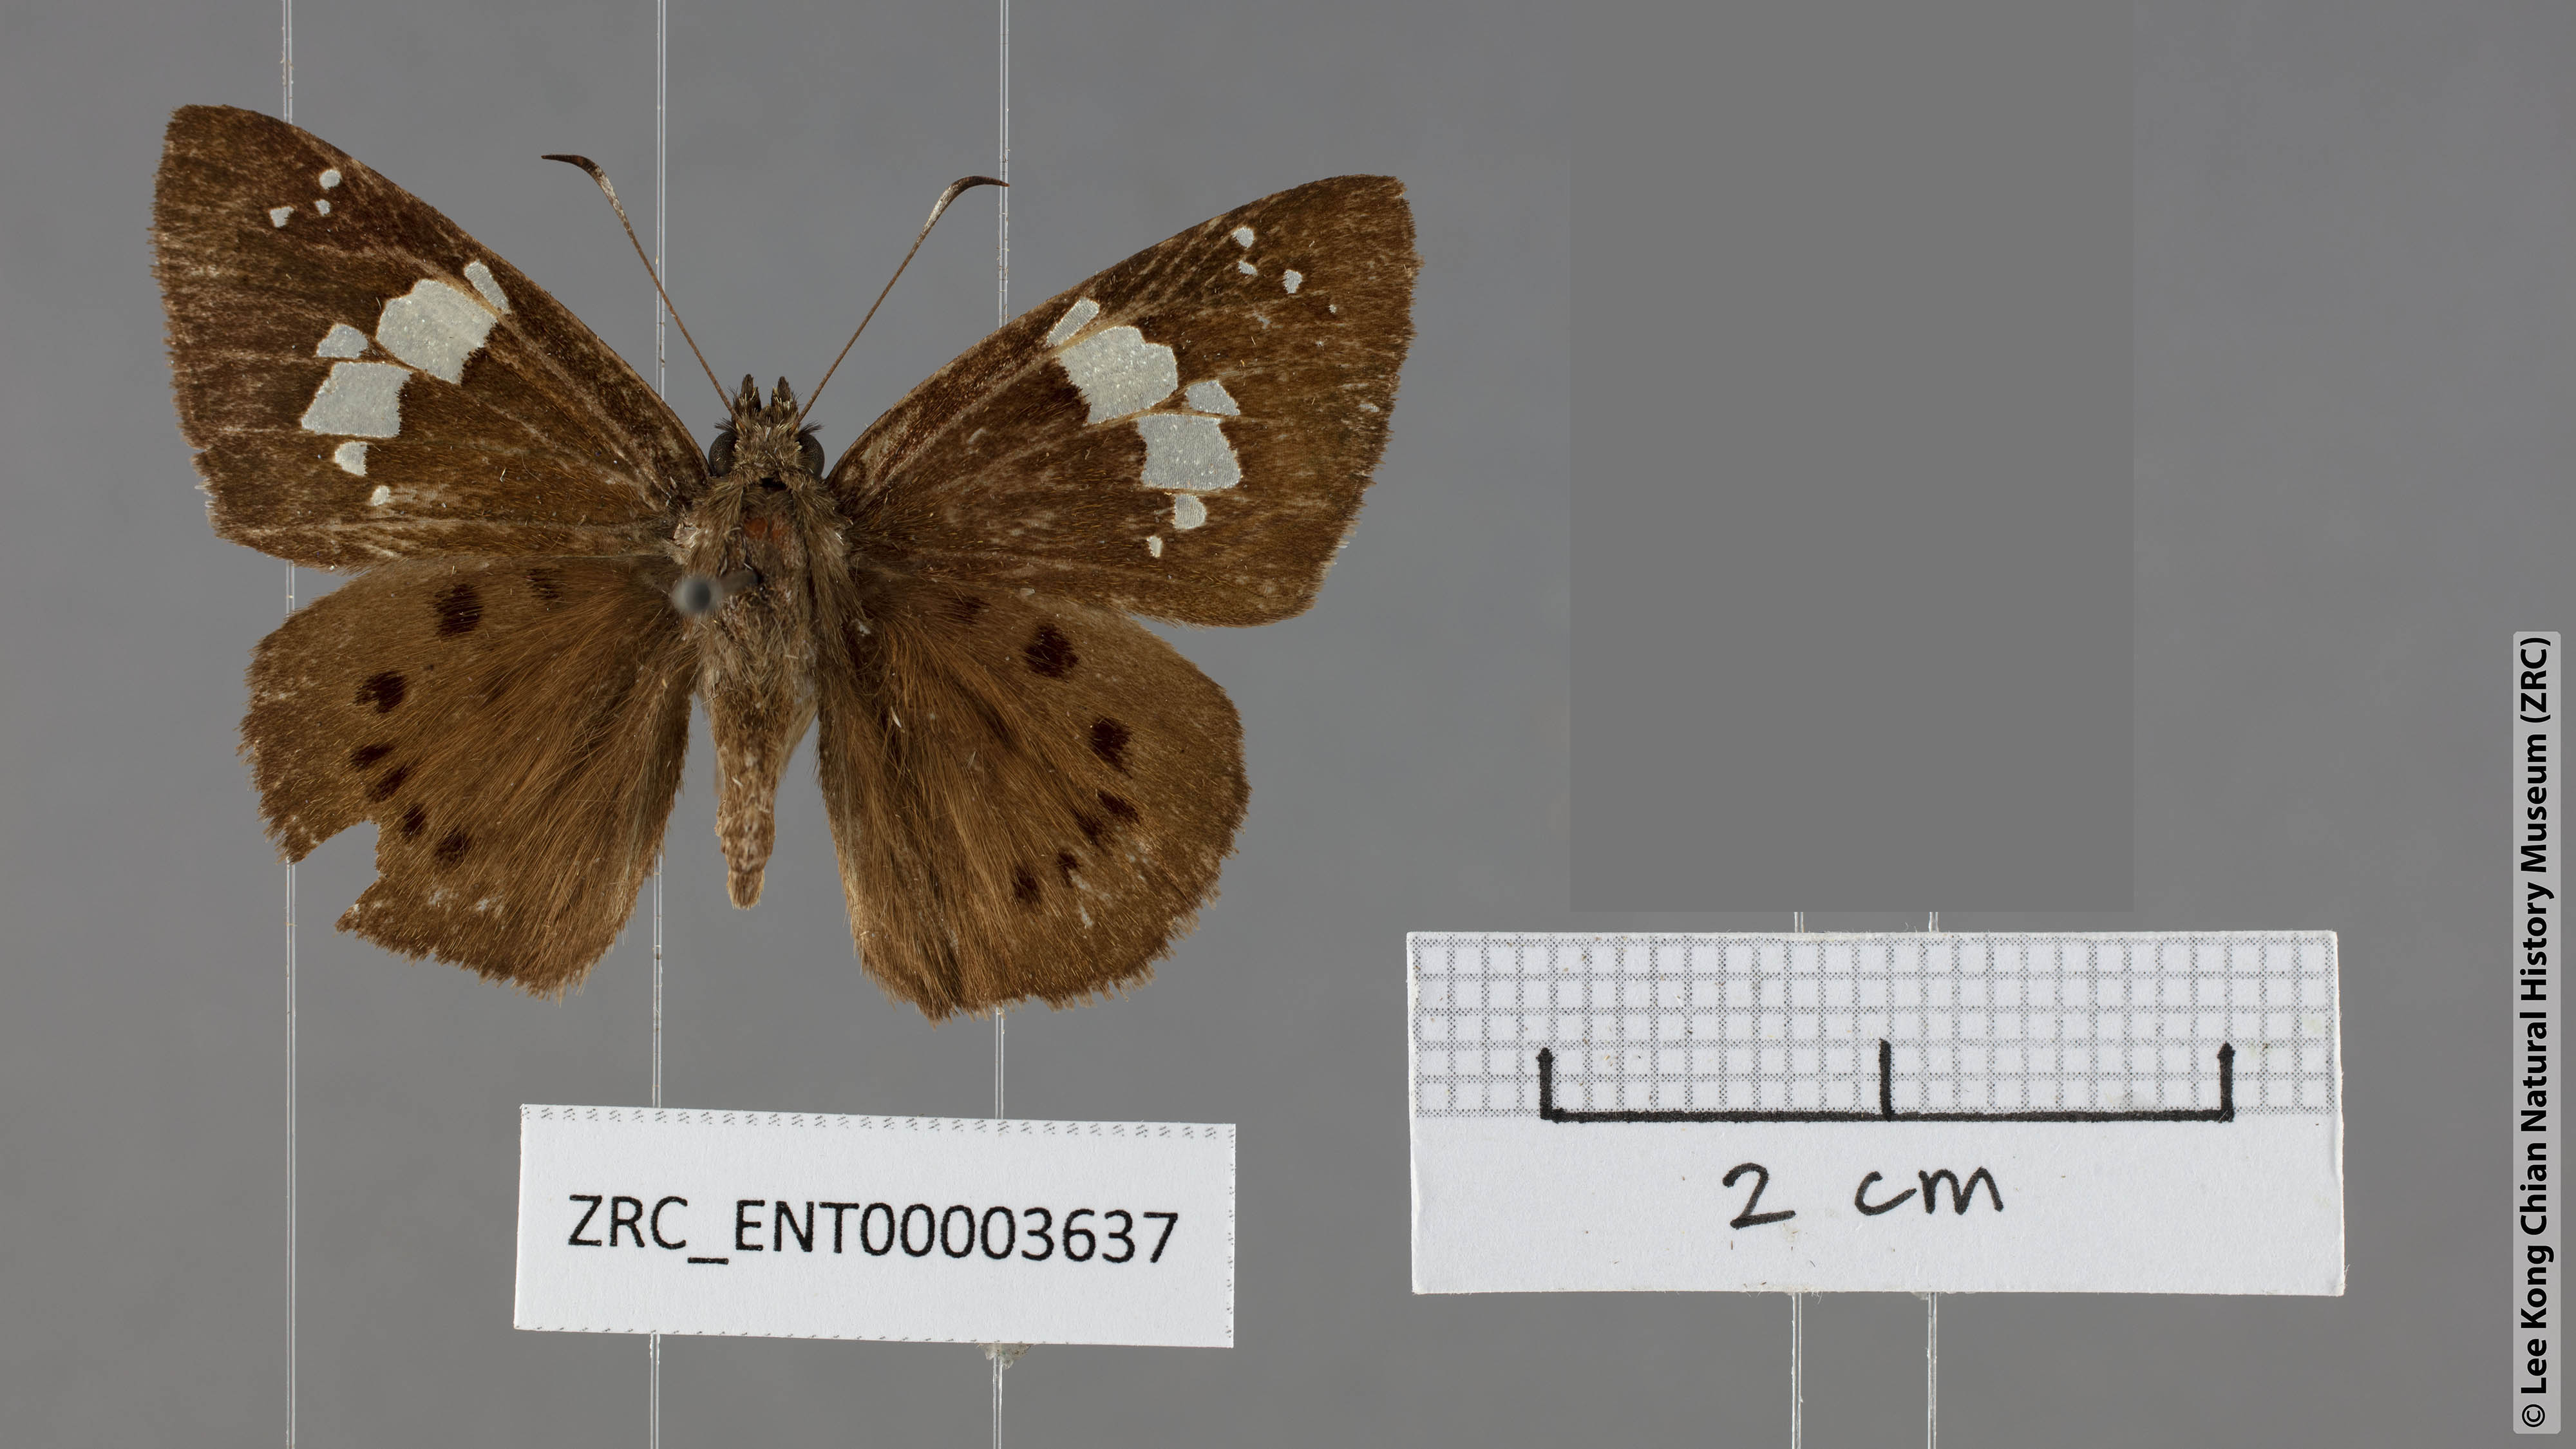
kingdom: Animalia
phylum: Arthropoda
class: Insecta
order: Lepidoptera
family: Hesperiidae
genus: Coladenia
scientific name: Coladenia agnioides
